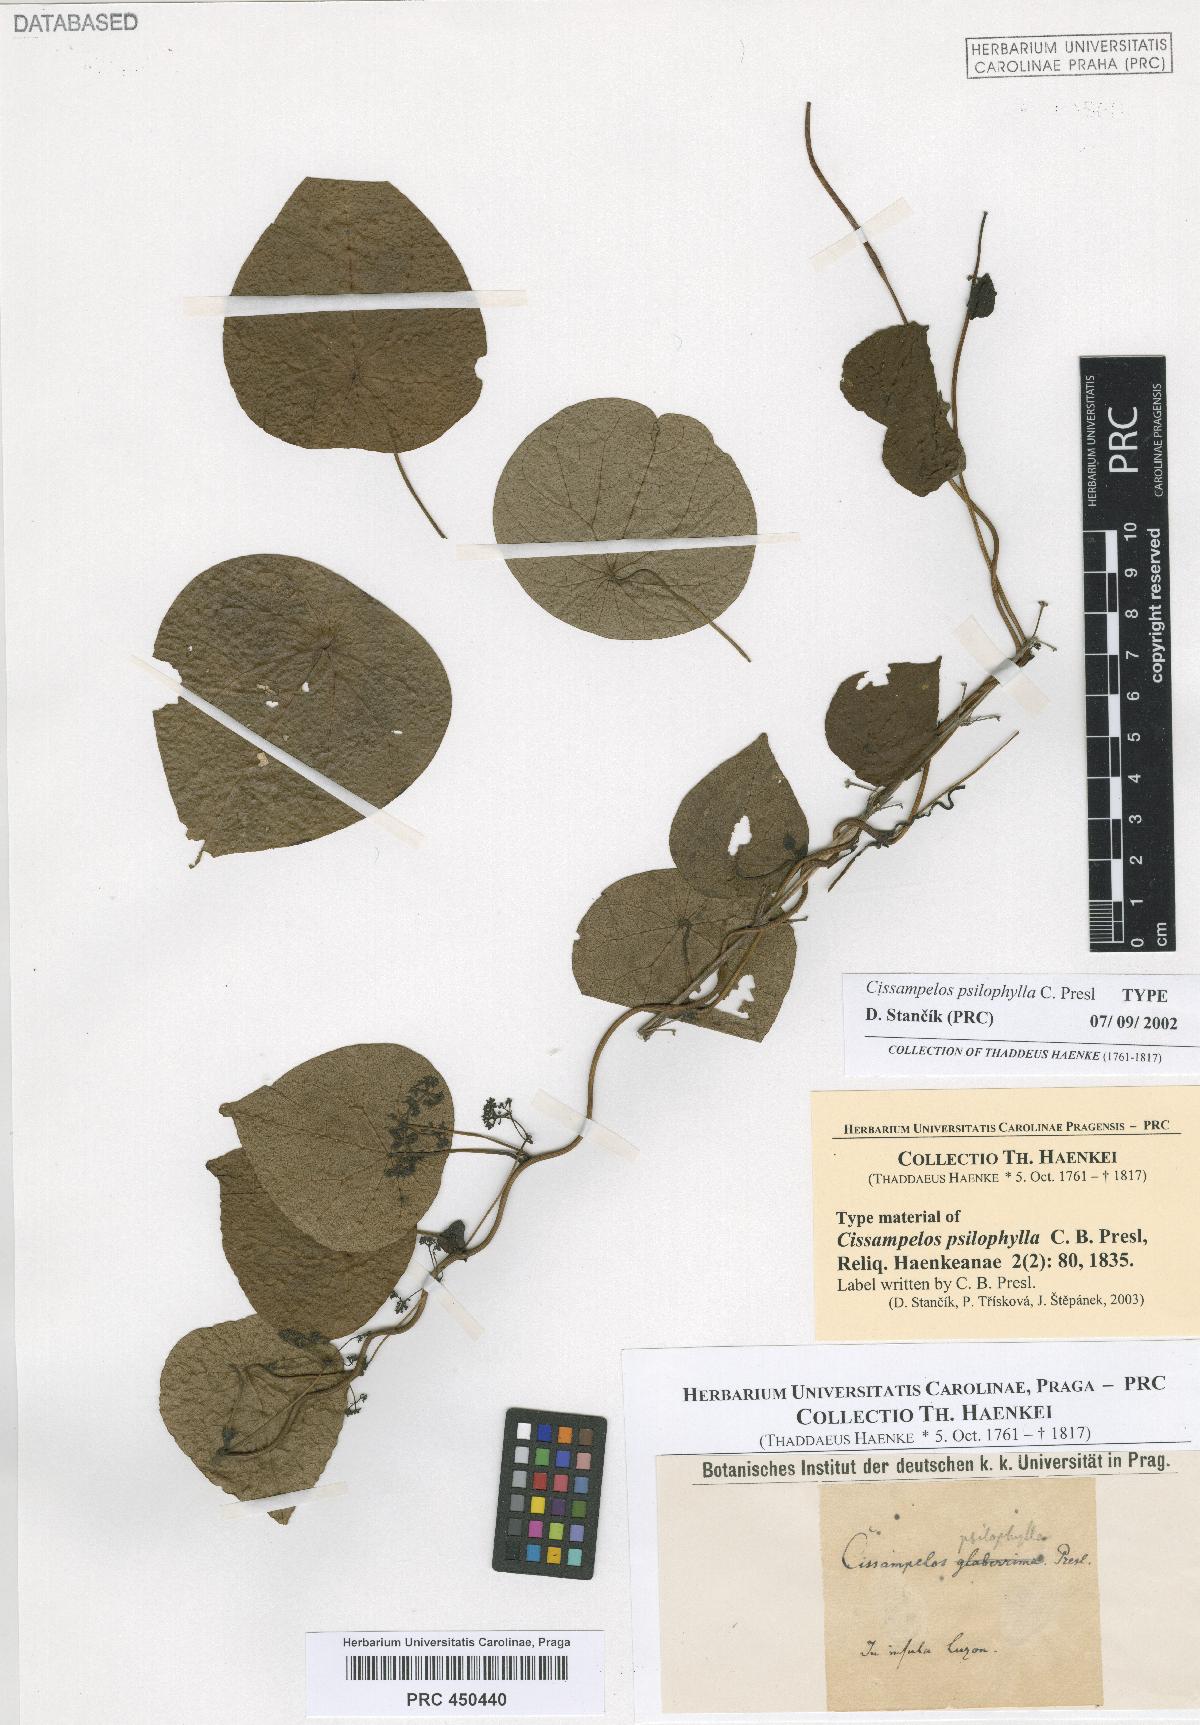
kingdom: Plantae
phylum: Tracheophyta
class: Magnoliopsida
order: Ranunculales
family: Menispermaceae
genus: Stephania
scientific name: Stephania psilophylla
